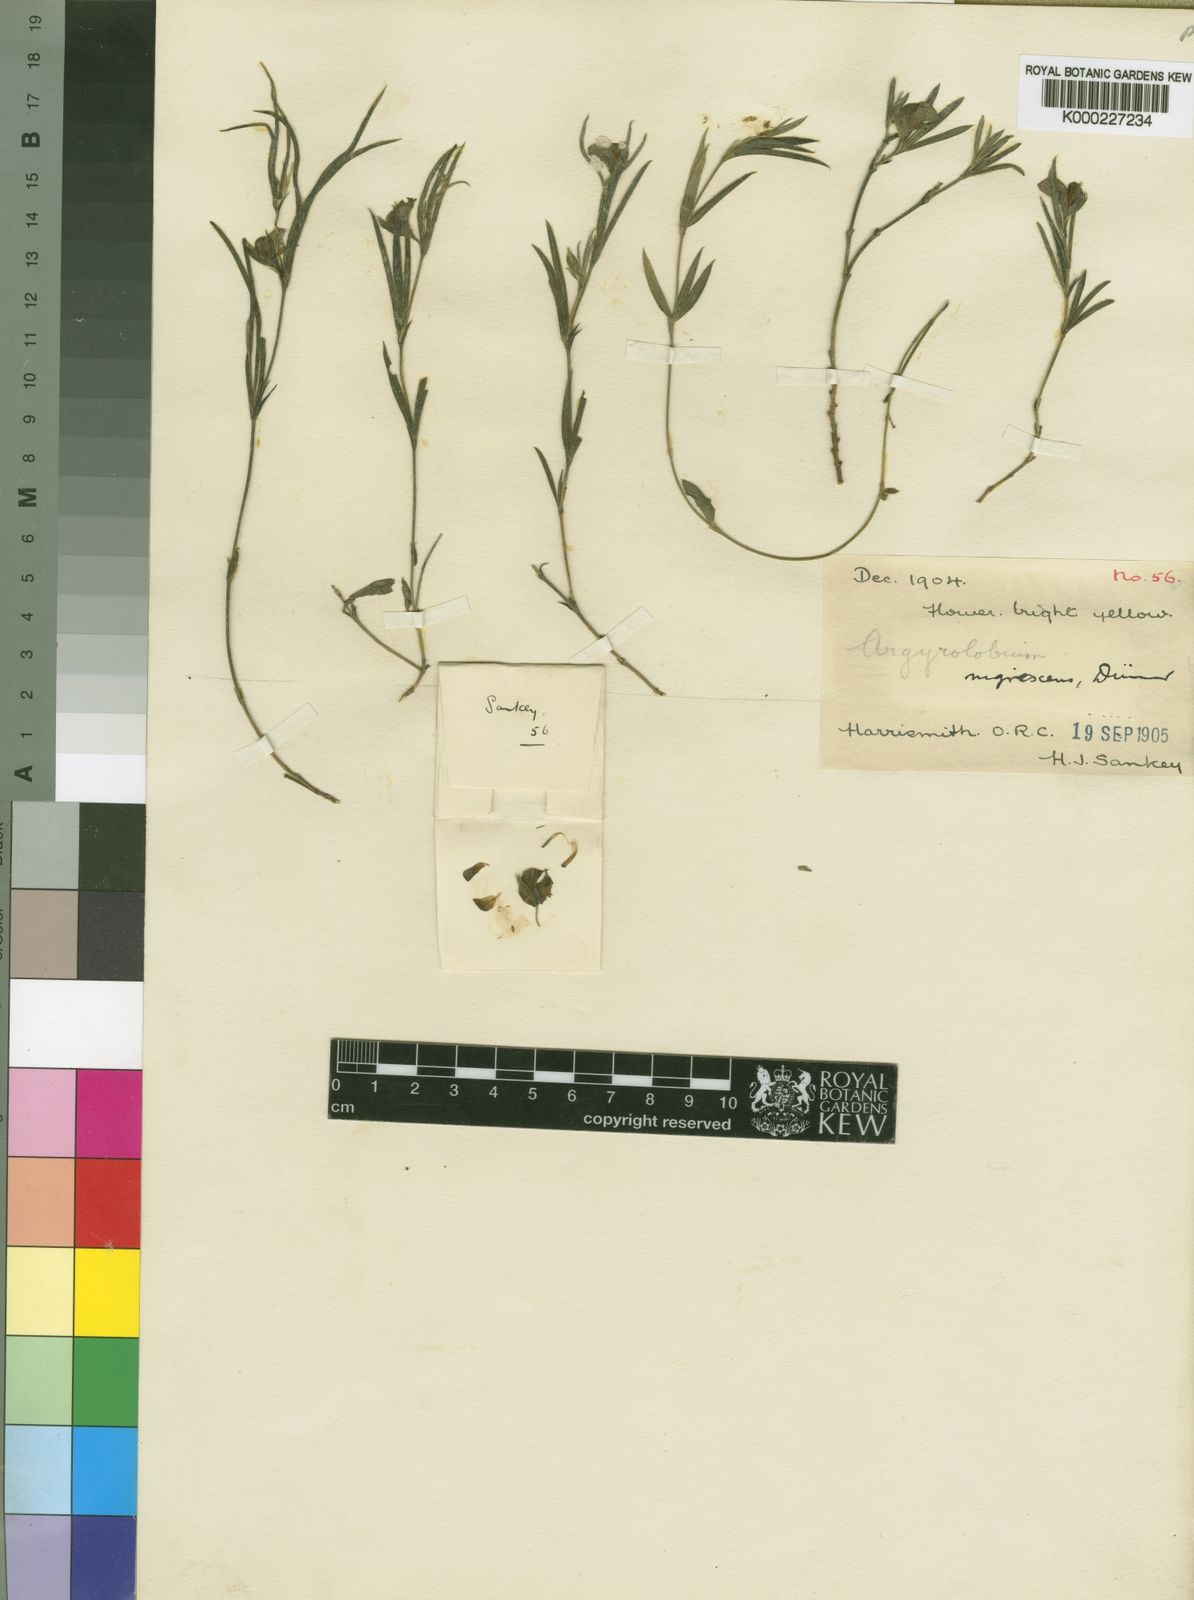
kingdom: Plantae
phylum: Tracheophyta
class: Magnoliopsida
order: Fabales
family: Fabaceae
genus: Argyrolobium
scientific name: Argyrolobium nigrescens
